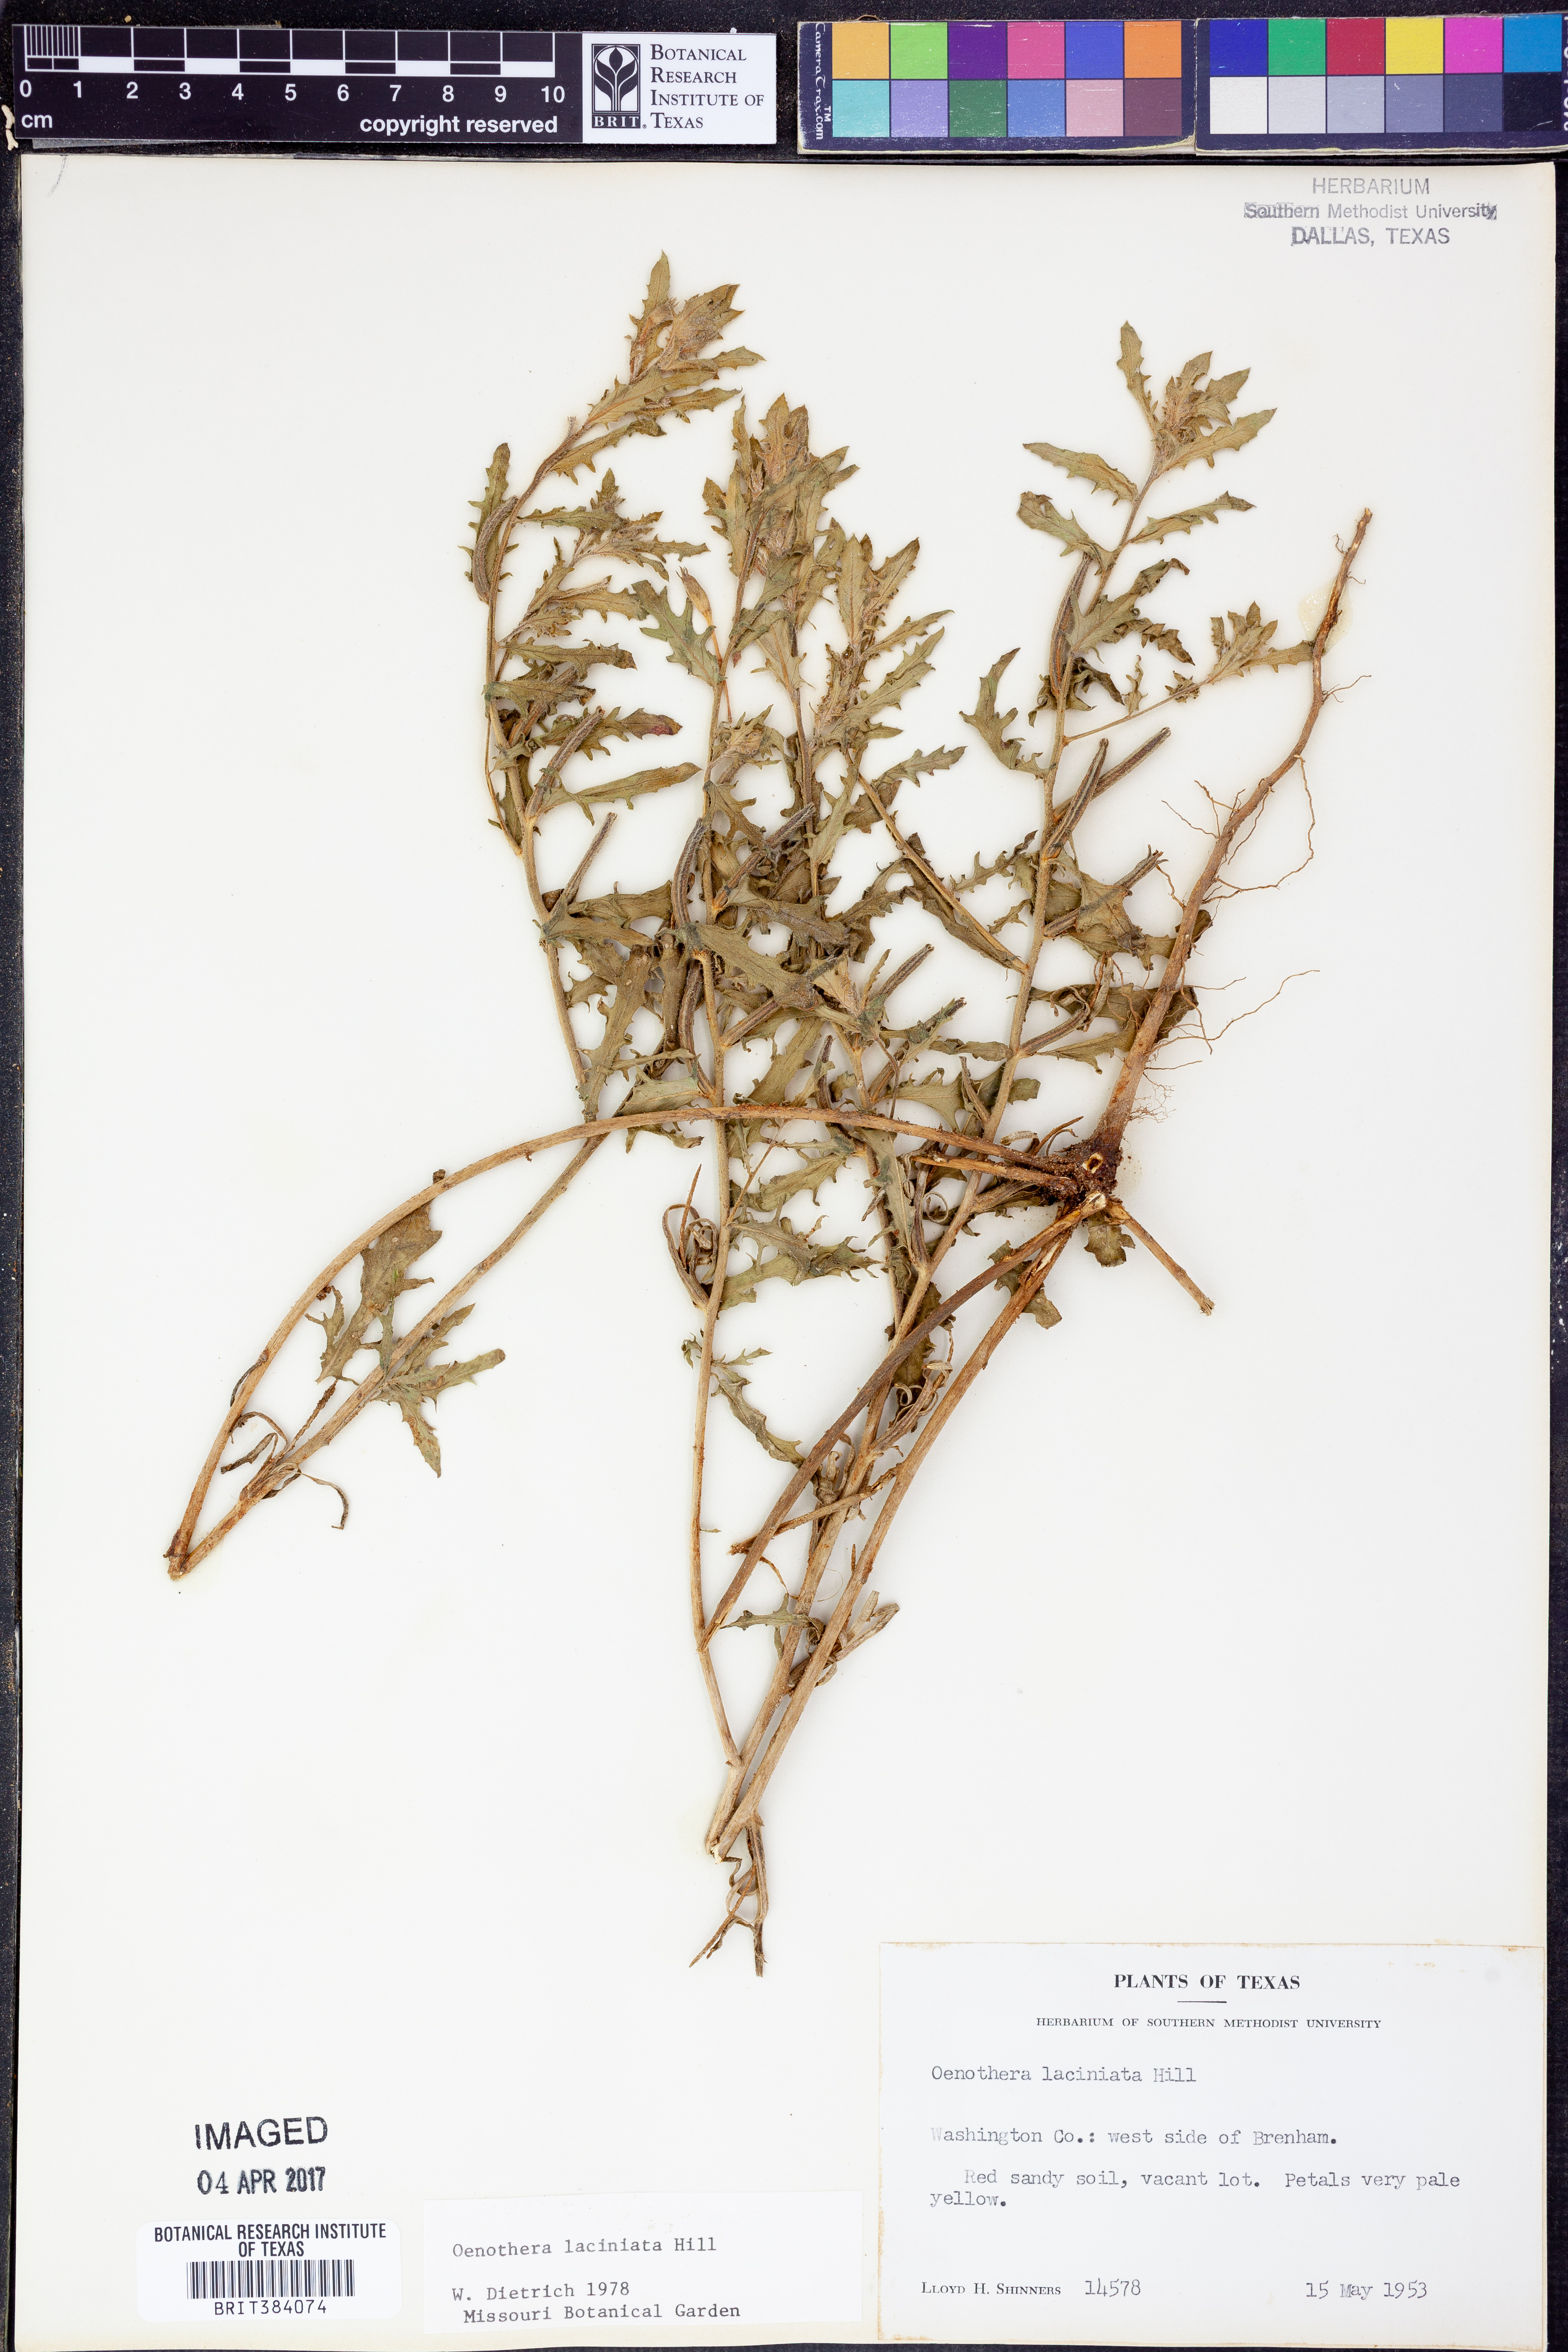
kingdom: Plantae
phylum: Tracheophyta
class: Magnoliopsida
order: Myrtales
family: Onagraceae
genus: Oenothera
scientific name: Oenothera laciniata
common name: Cut-leaved evening-primrose
